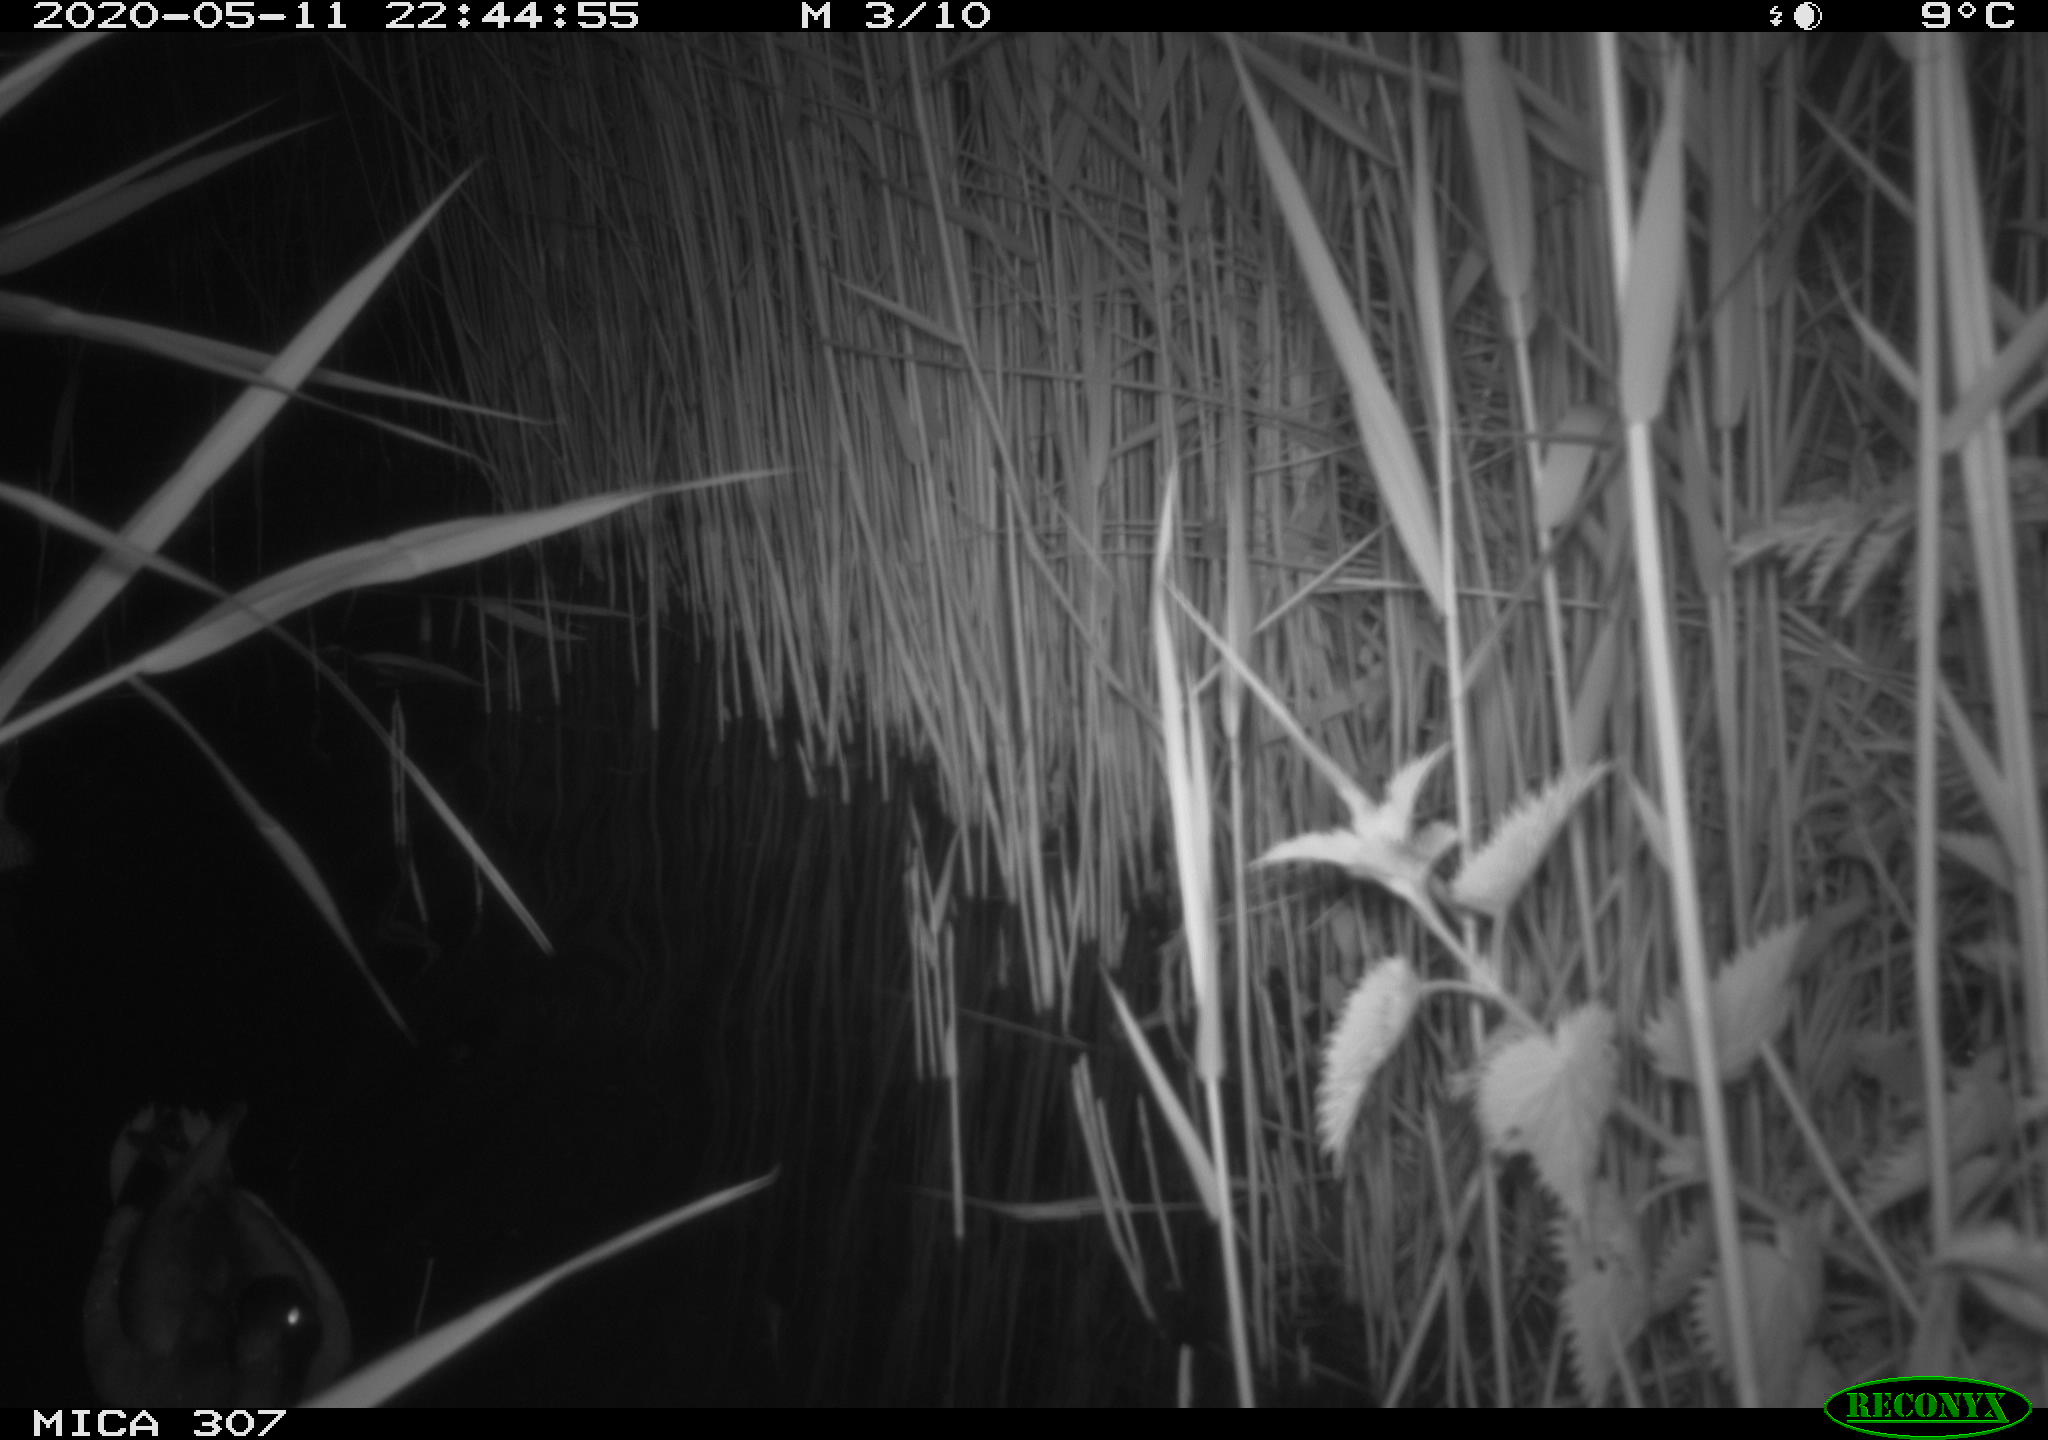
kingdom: Animalia
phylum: Chordata
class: Aves
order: Anseriformes
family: Anatidae
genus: Anas
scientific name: Anas platyrhynchos
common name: Mallard
